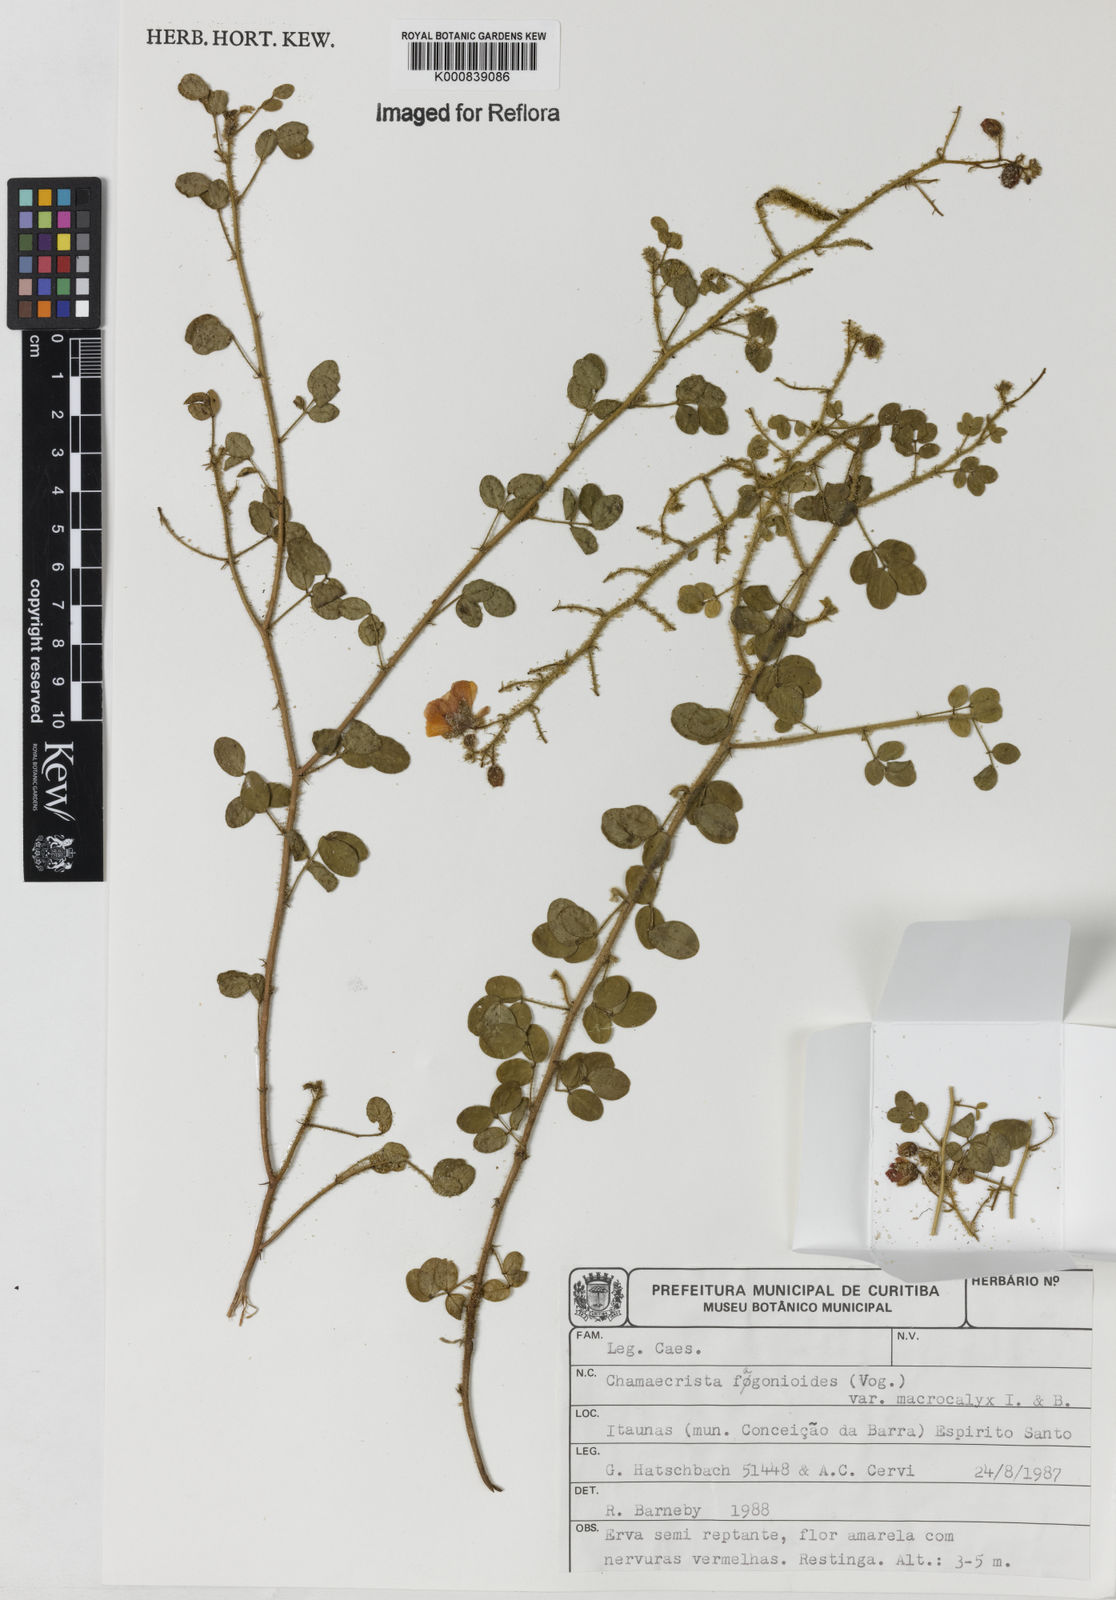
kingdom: Plantae
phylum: Tracheophyta
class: Magnoliopsida
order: Fabales
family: Fabaceae
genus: Chamaecrista
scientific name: Chamaecrista fagonioides
